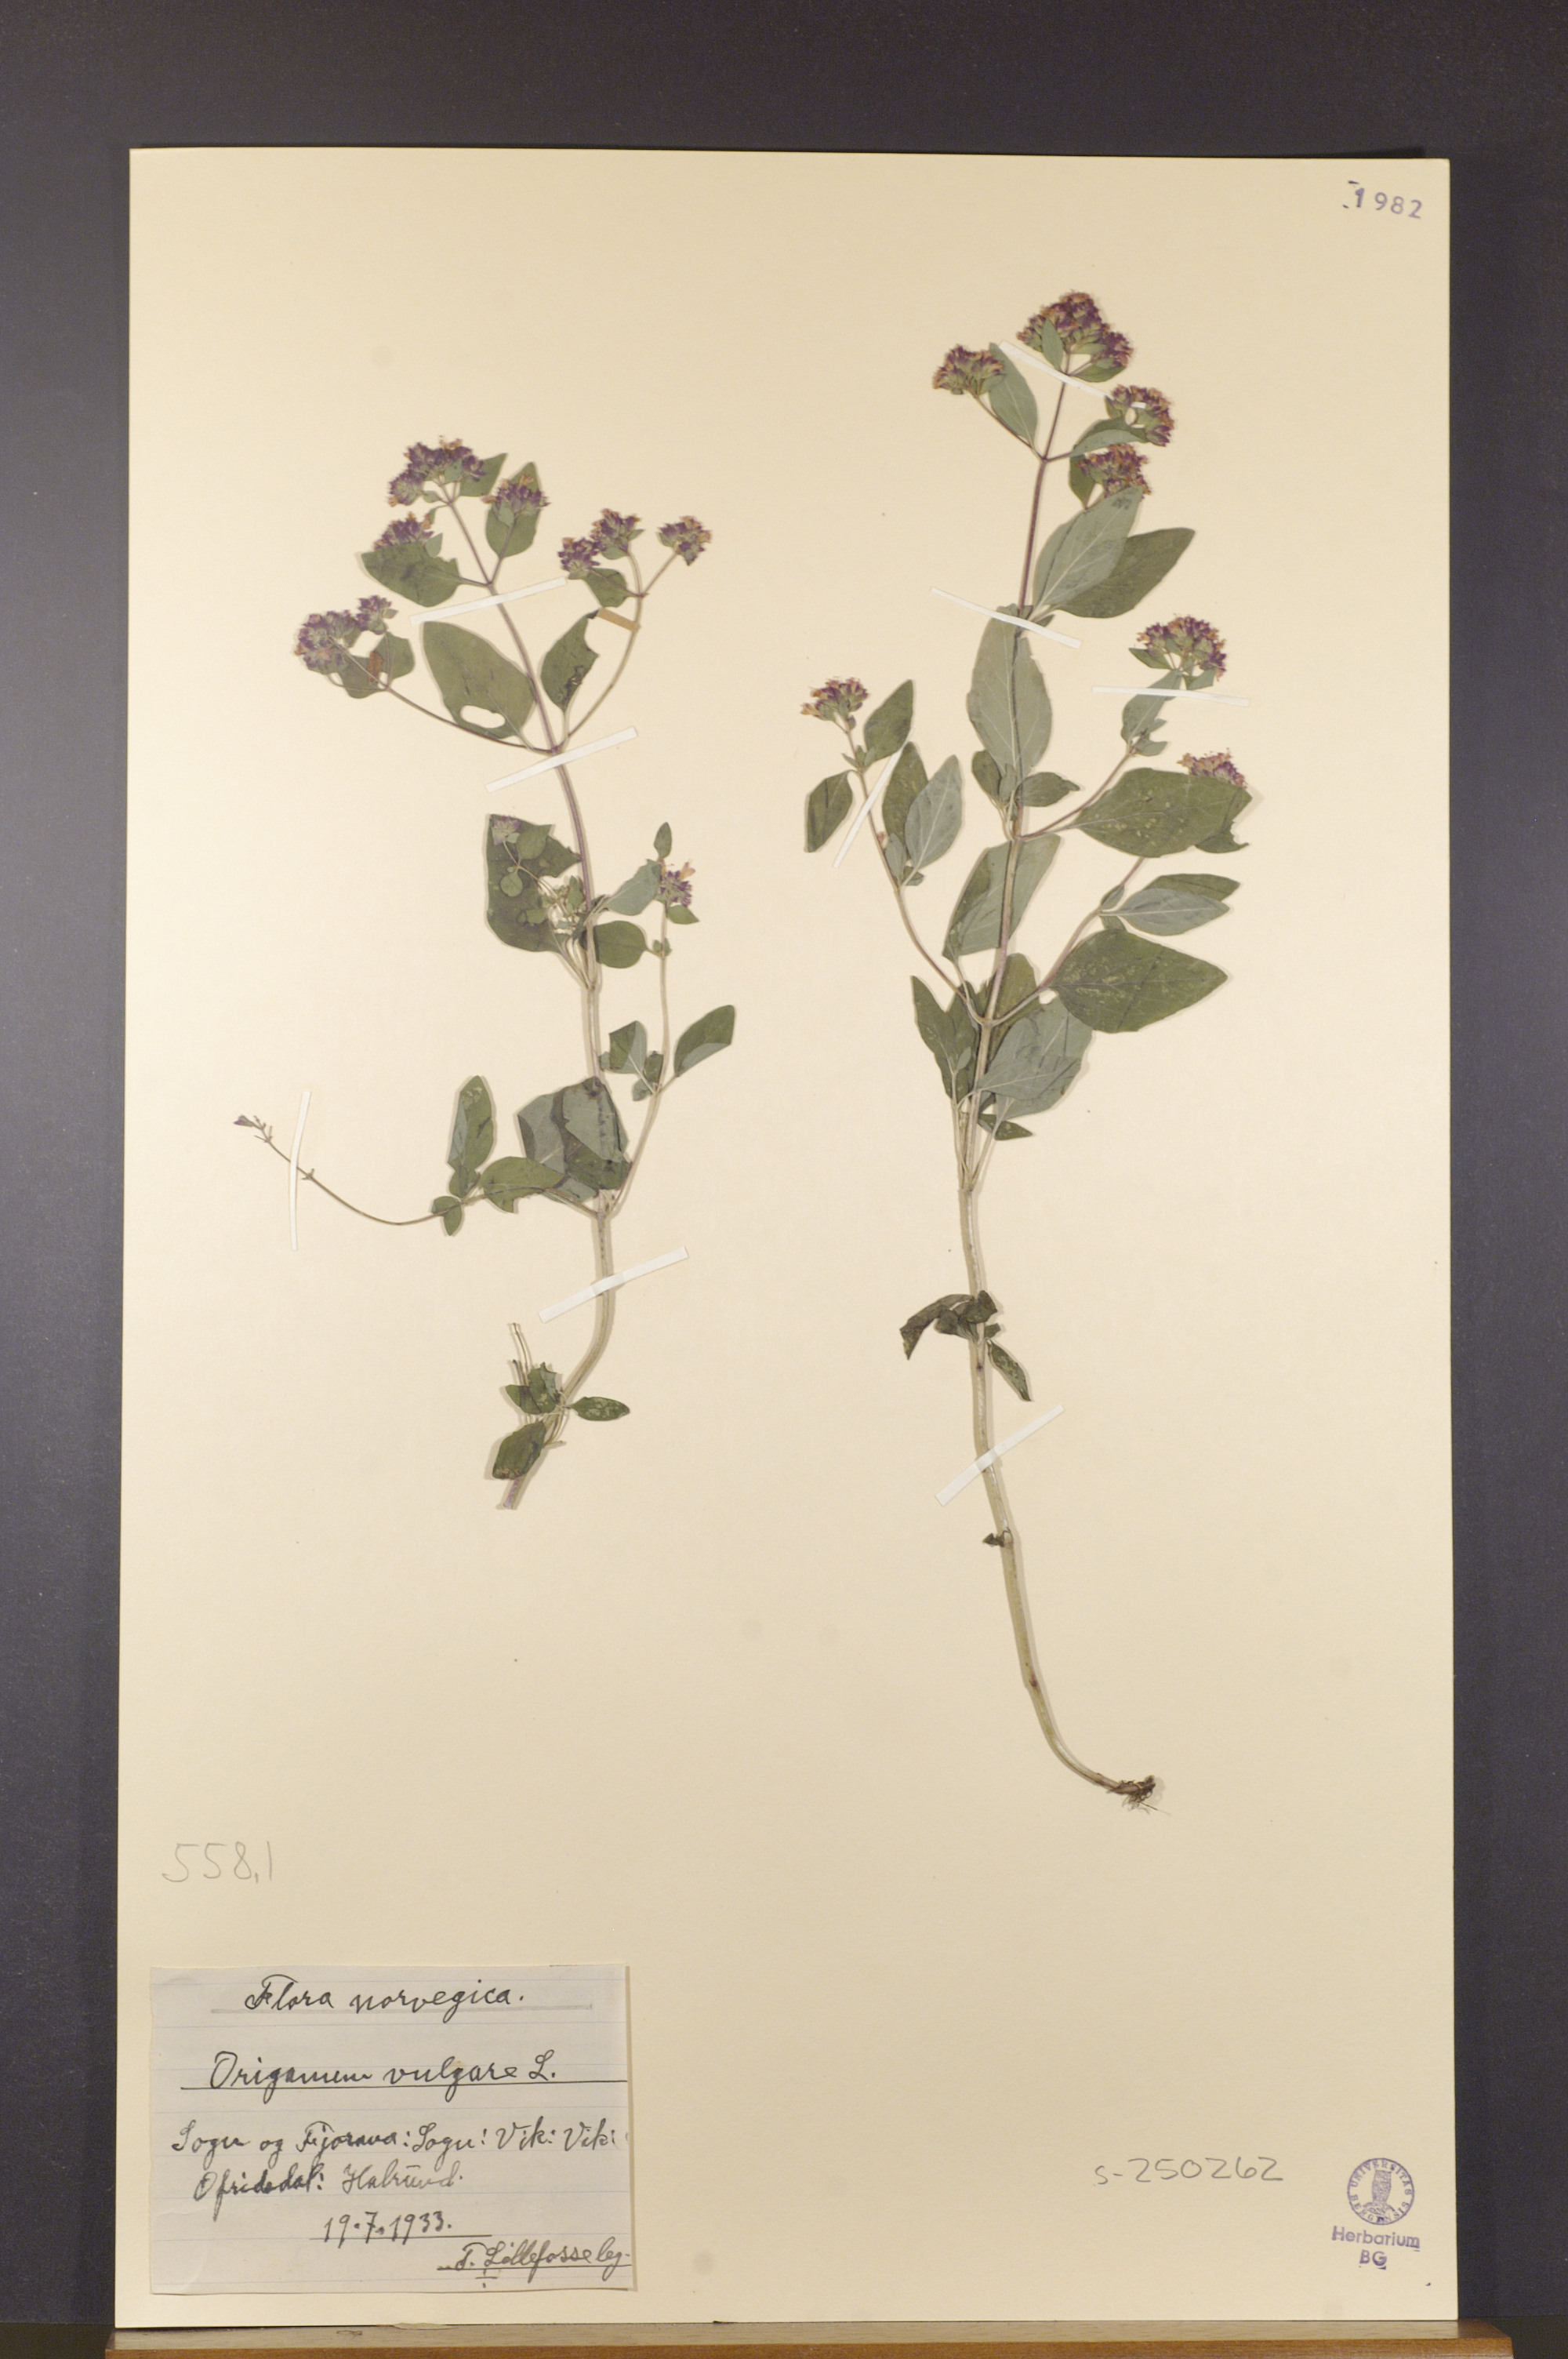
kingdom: Plantae
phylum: Tracheophyta
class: Magnoliopsida
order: Lamiales
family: Lamiaceae
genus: Origanum
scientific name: Origanum vulgare
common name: Wild marjoram
